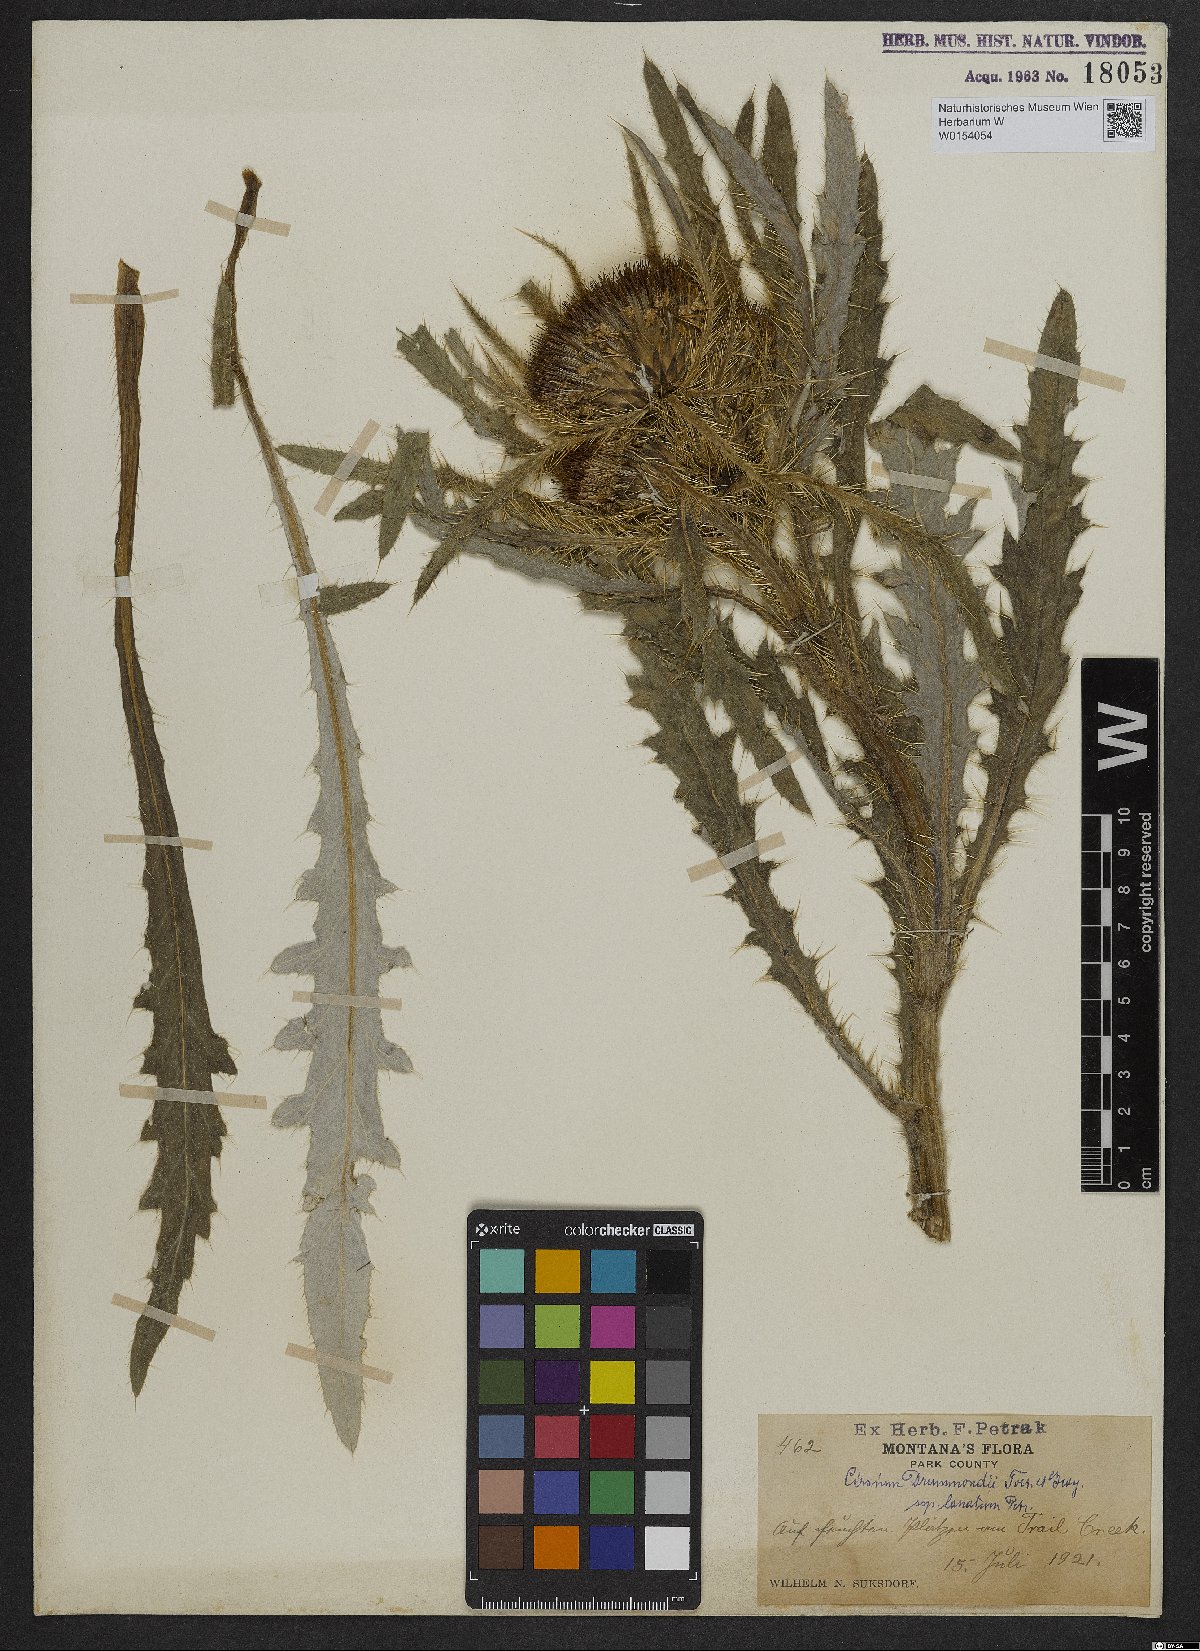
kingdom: Plantae
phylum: Tracheophyta
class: Magnoliopsida
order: Asterales
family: Asteraceae
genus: Cirsium
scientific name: Cirsium tioganum
